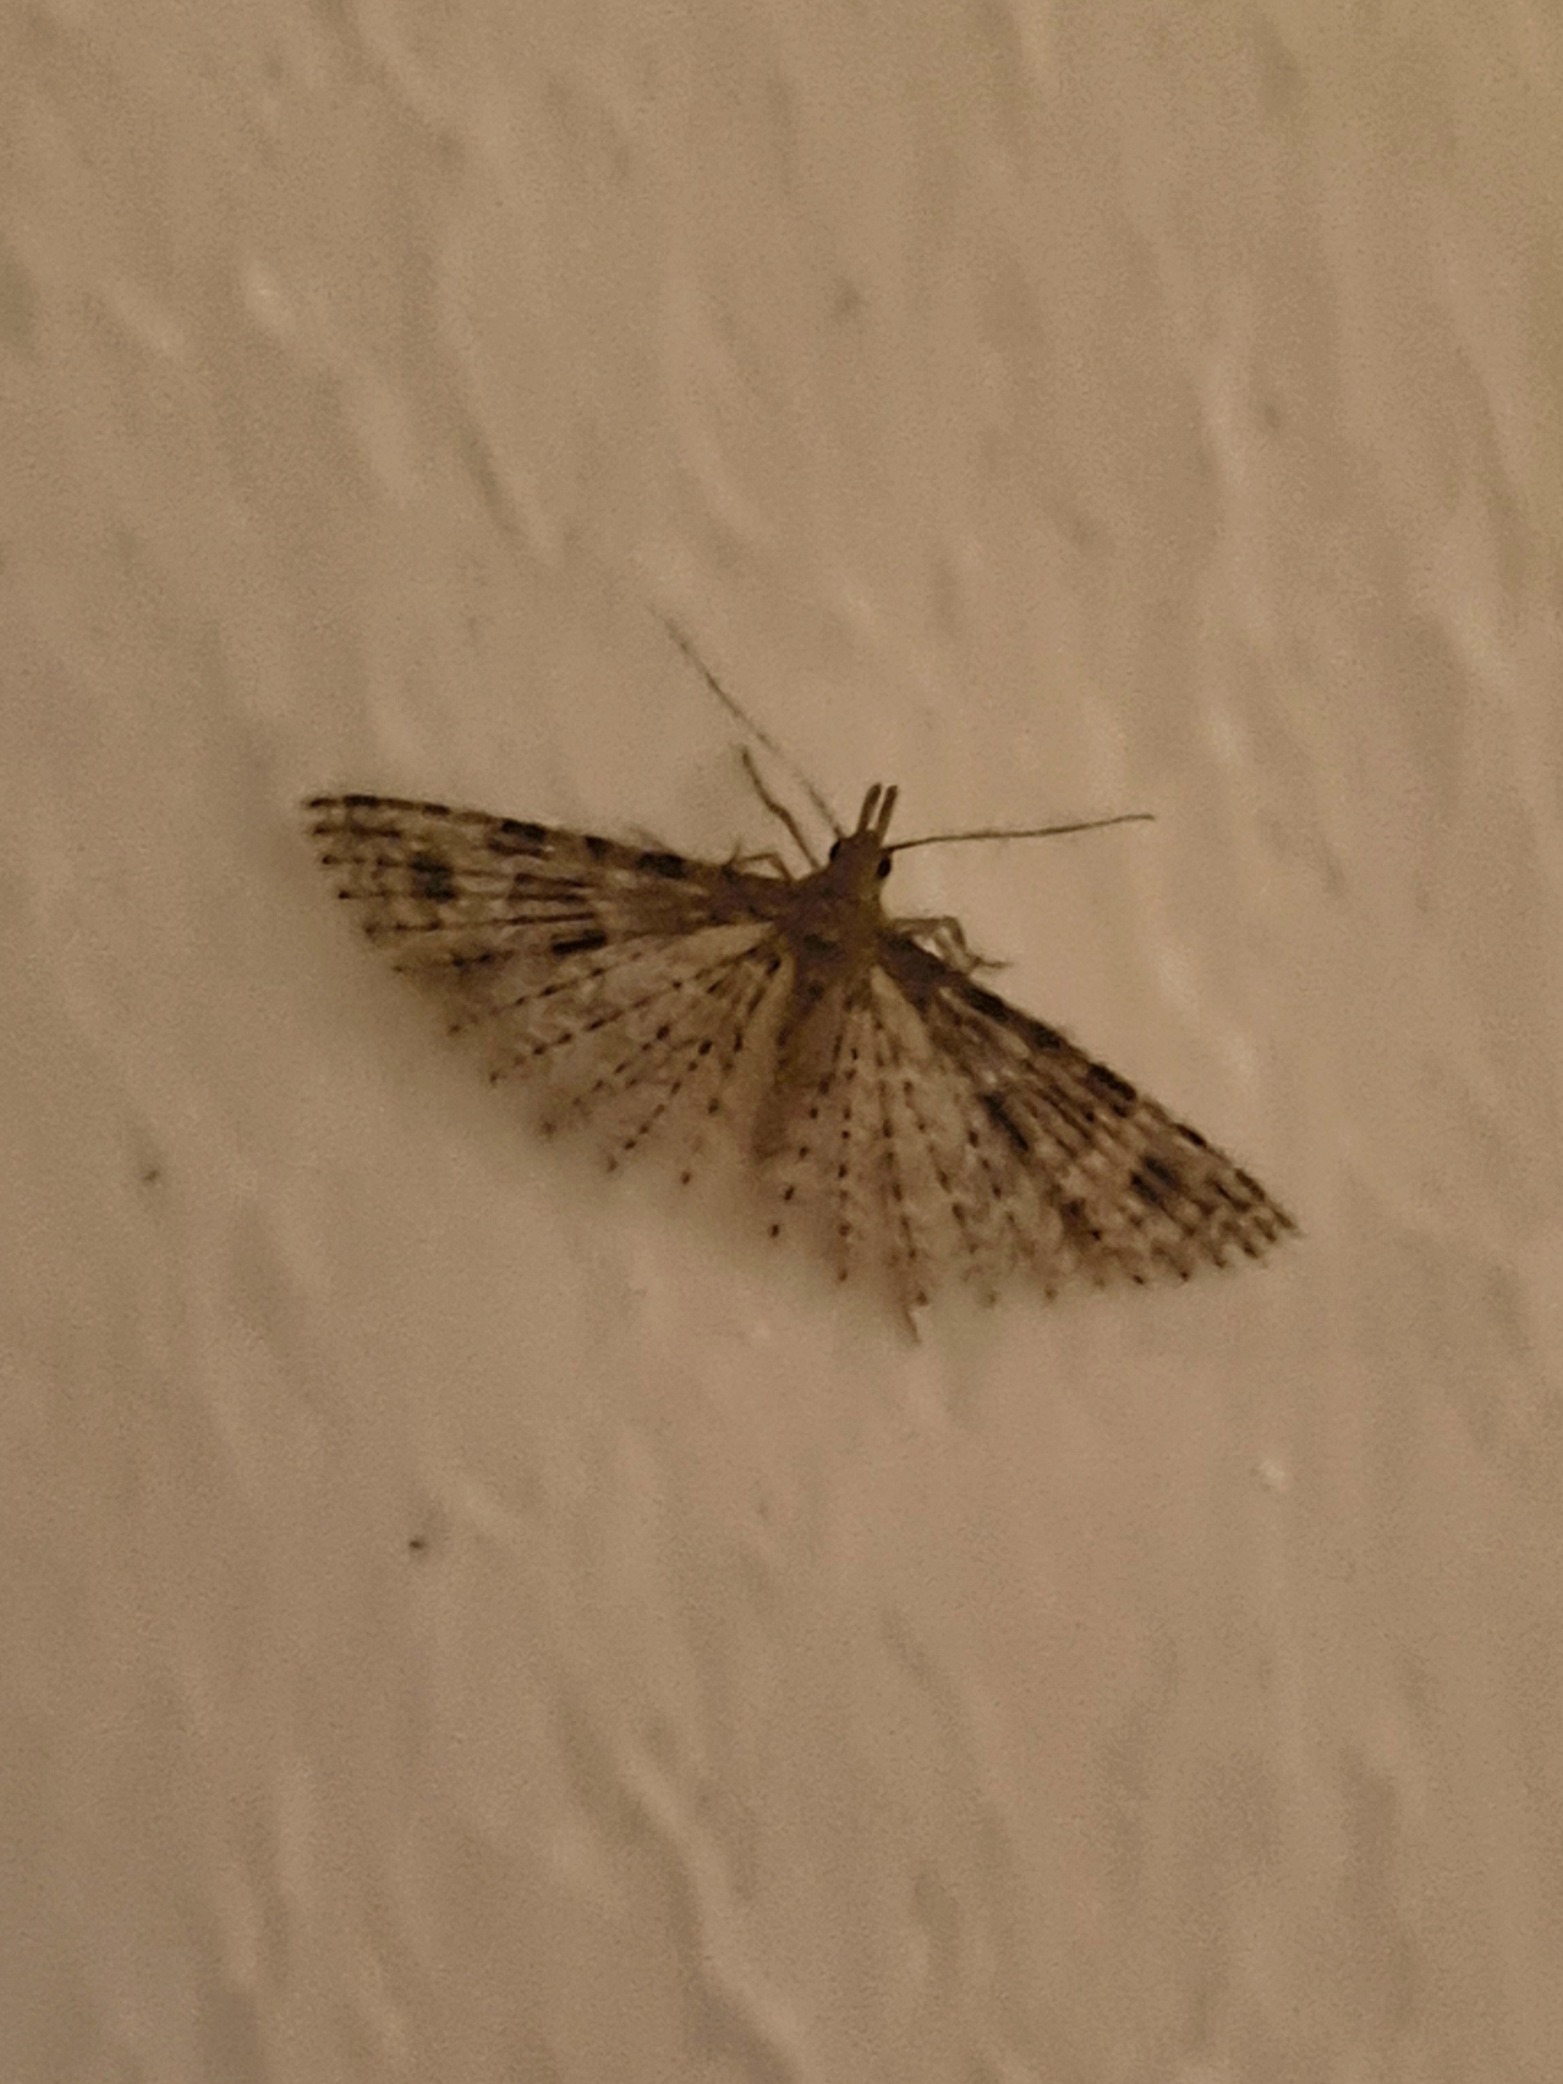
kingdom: Animalia
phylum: Arthropoda
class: Insecta
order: Lepidoptera
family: Alucitidae
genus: Alucita
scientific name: Alucita hexadactyla
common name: Kaprifoliefjermøl
